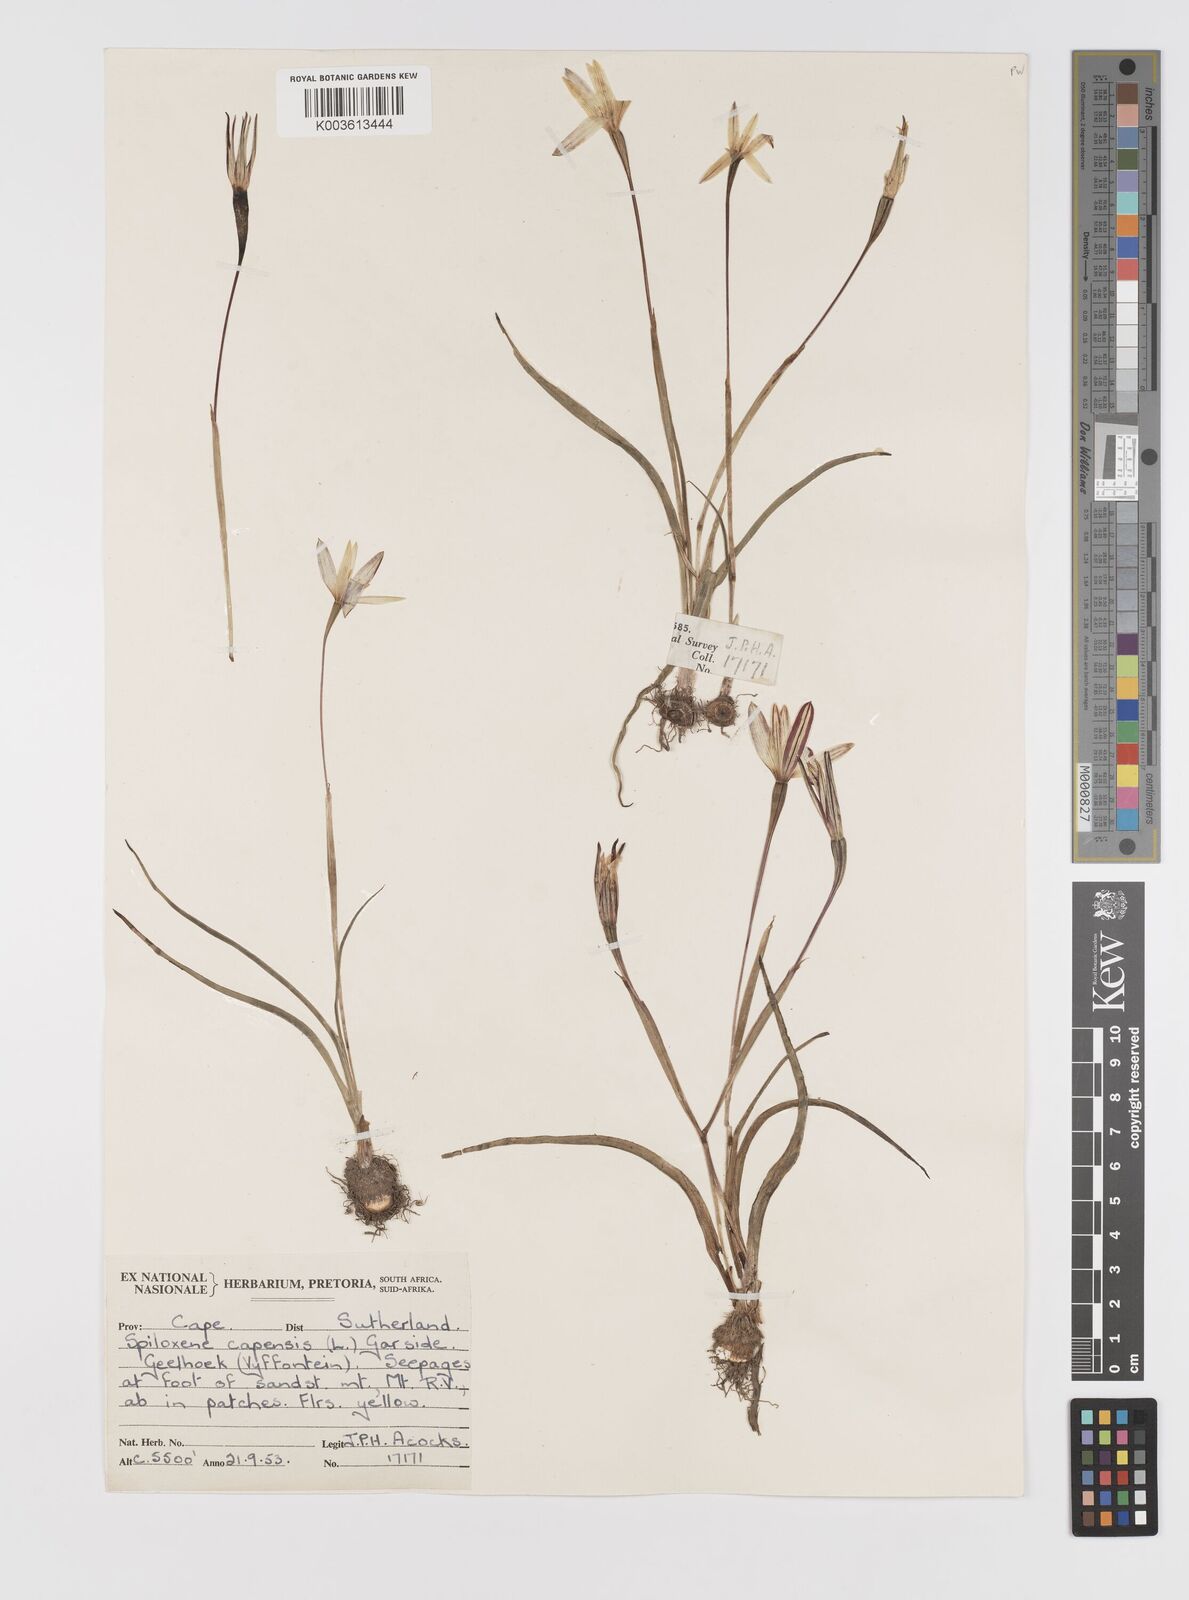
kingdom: Plantae
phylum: Tracheophyta
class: Liliopsida
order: Asparagales
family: Hypoxidaceae
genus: Pauridia
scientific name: Pauridia capensis
